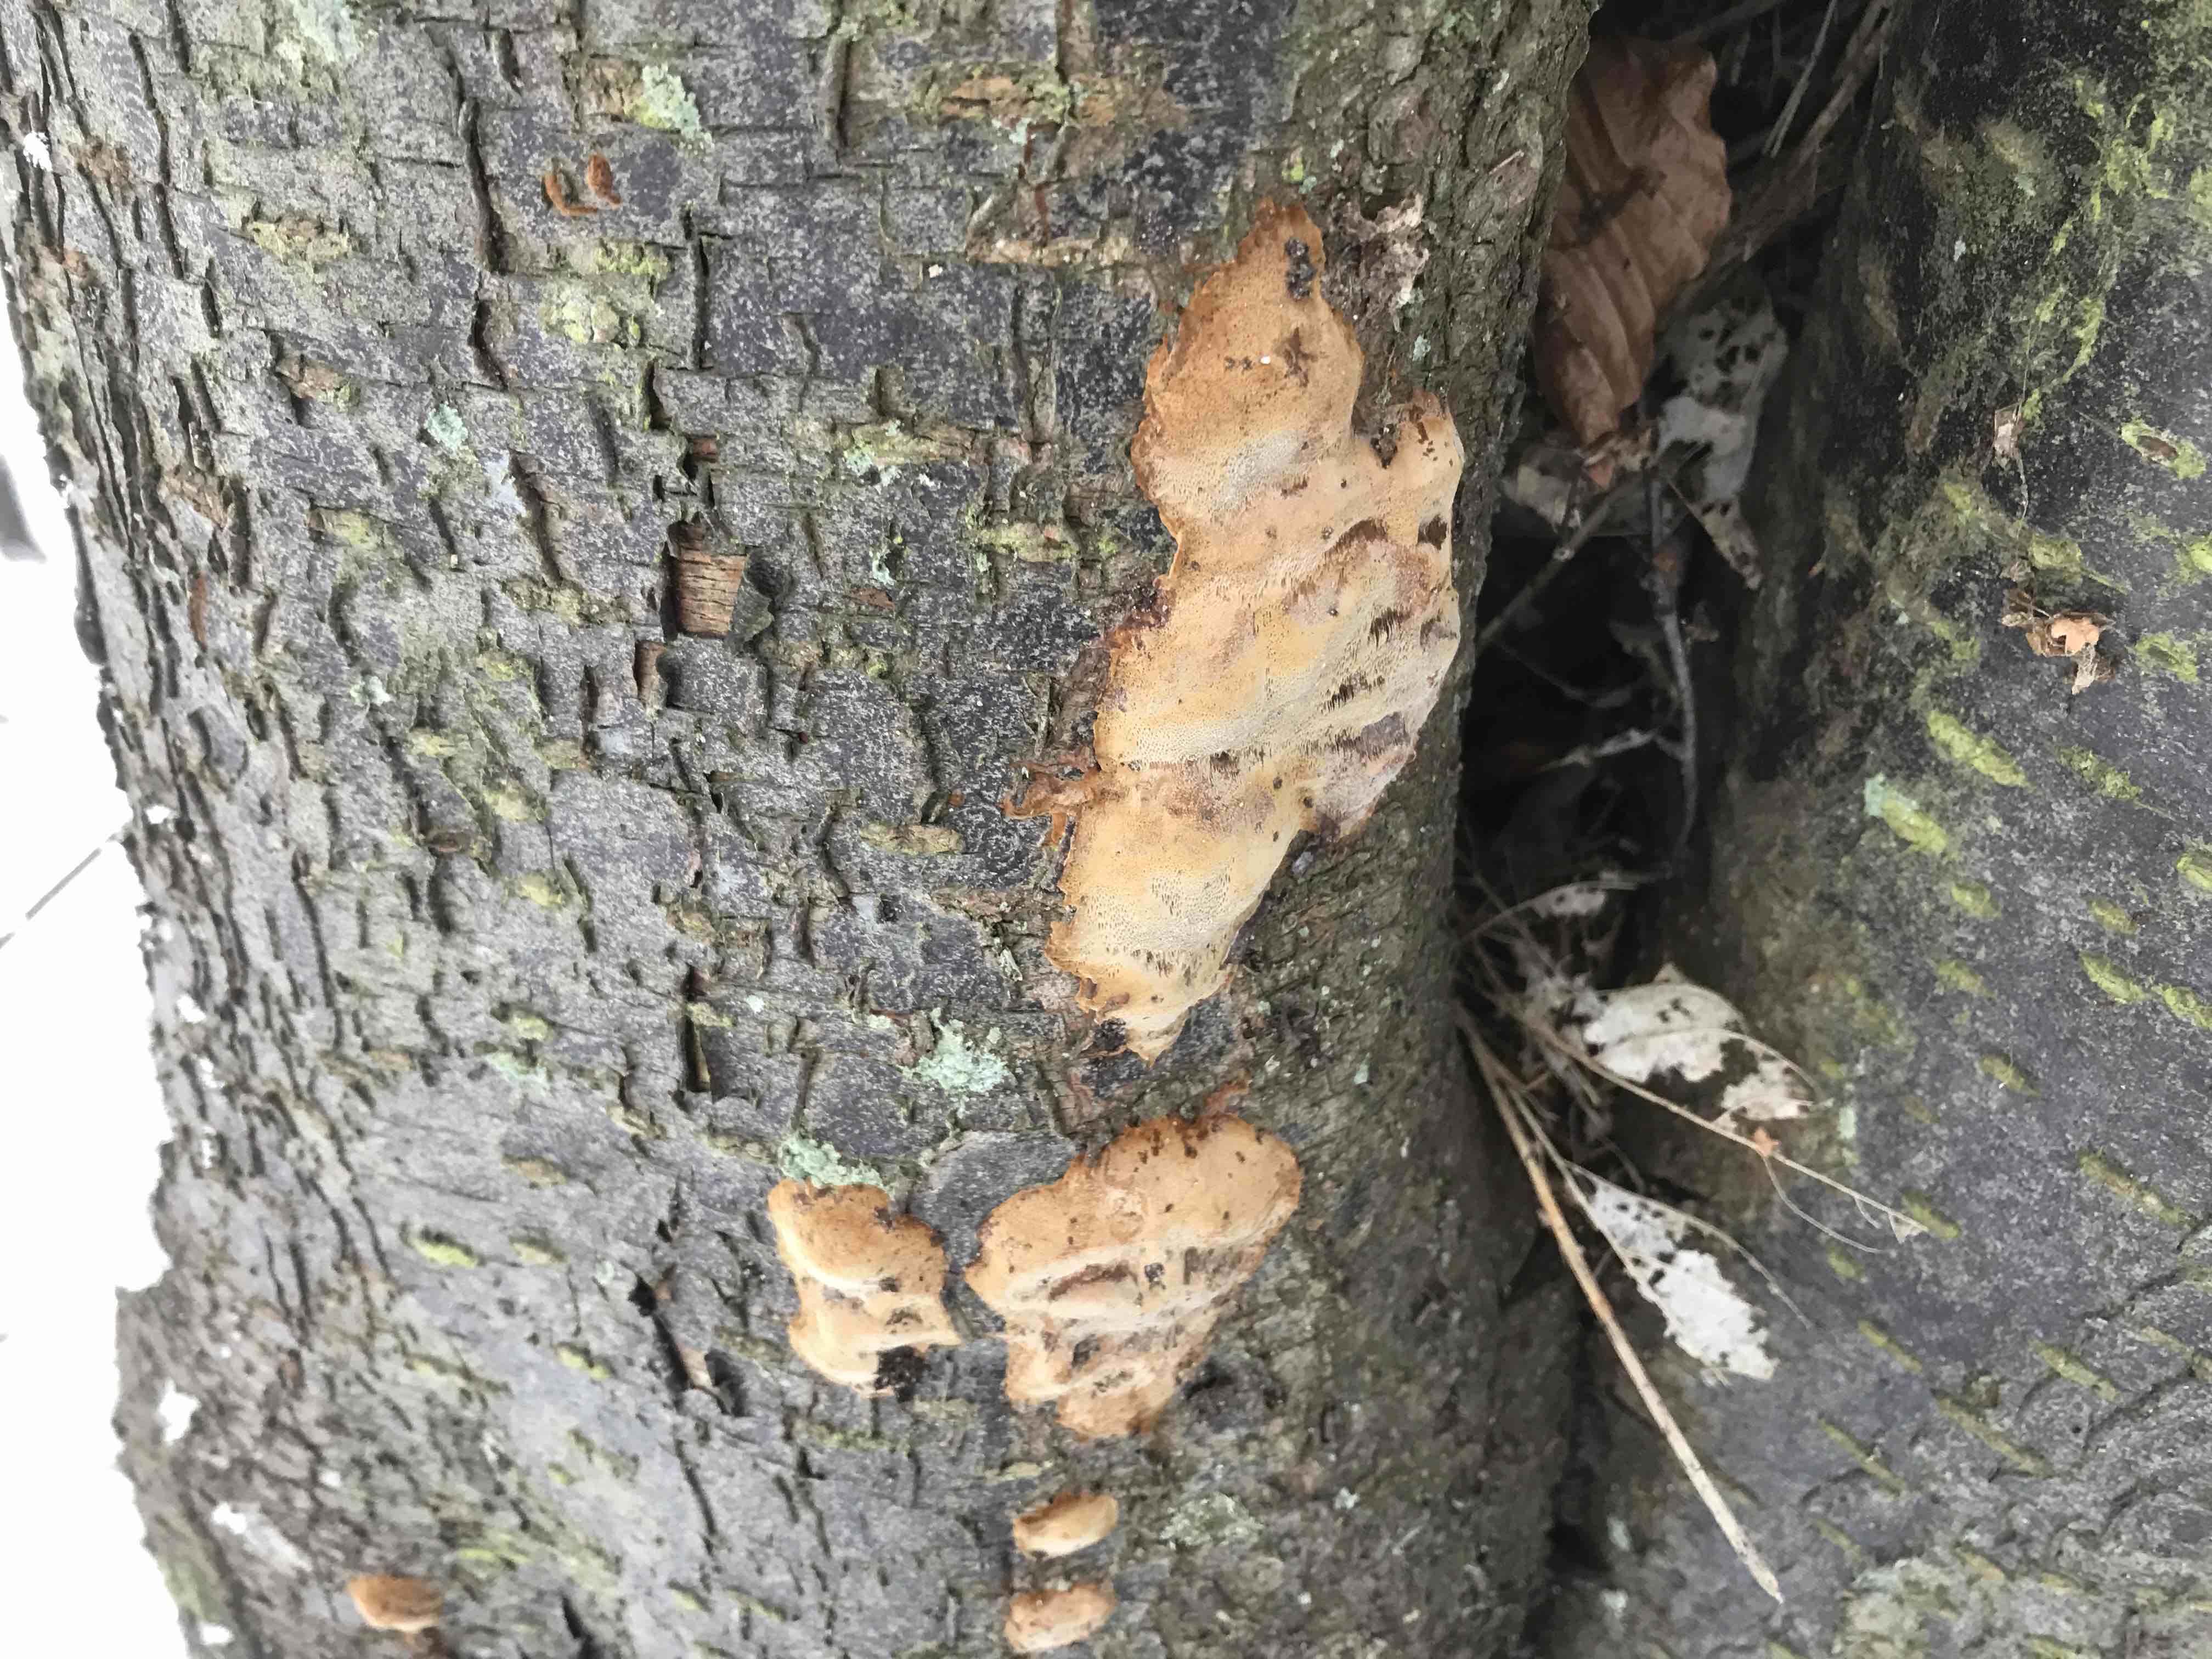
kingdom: Fungi
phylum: Basidiomycota
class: Agaricomycetes
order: Hymenochaetales
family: Hymenochaetaceae
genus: Phellinus
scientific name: Phellinus pomaceus
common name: blomme-ildporesvamp
